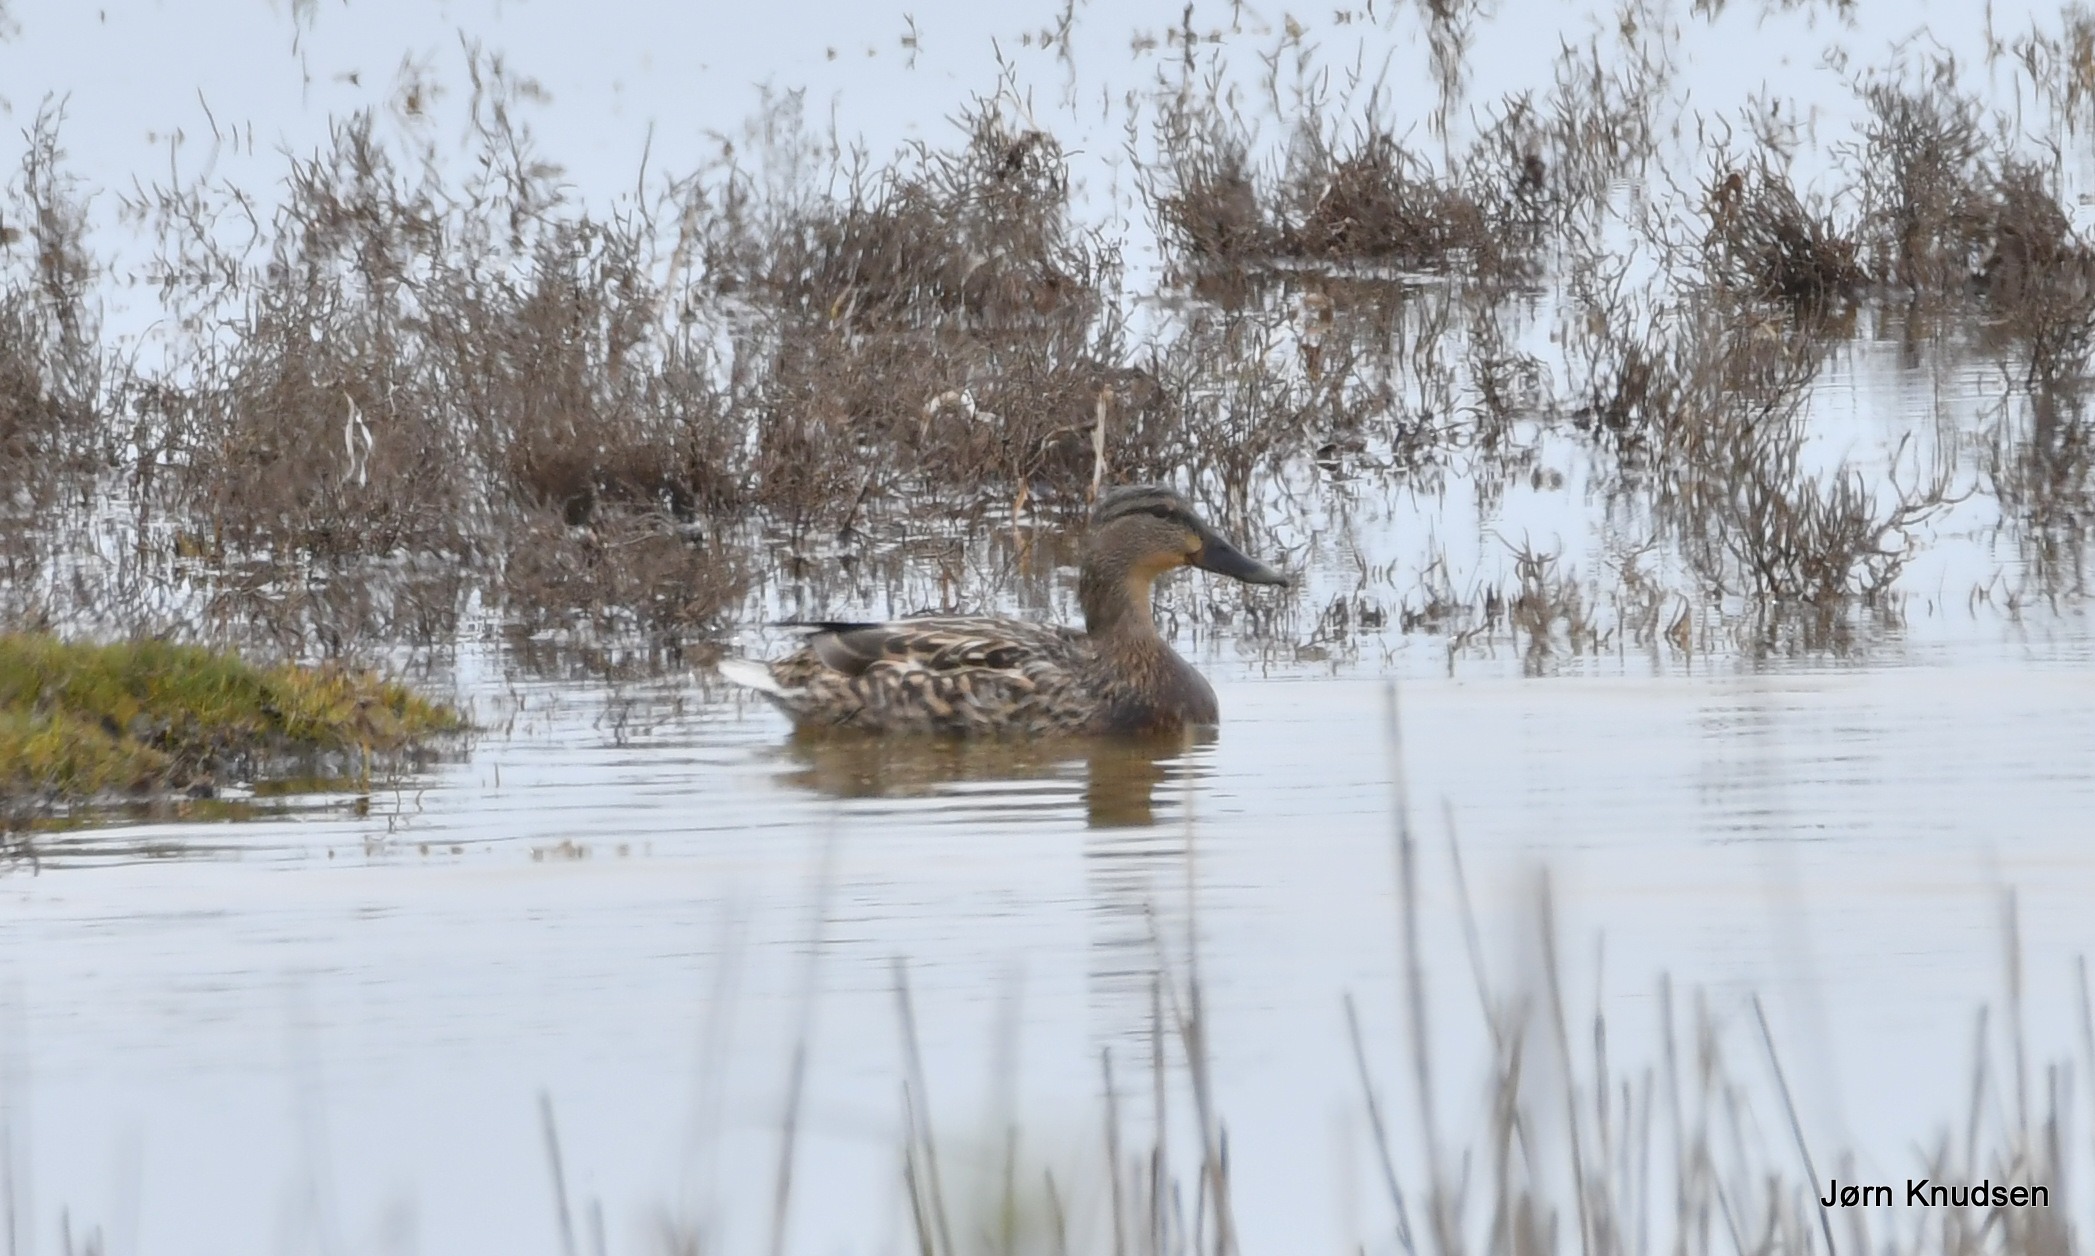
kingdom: Animalia
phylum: Chordata
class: Aves
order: Anseriformes
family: Anatidae
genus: Anas
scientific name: Anas platyrhynchos
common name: Gråand
